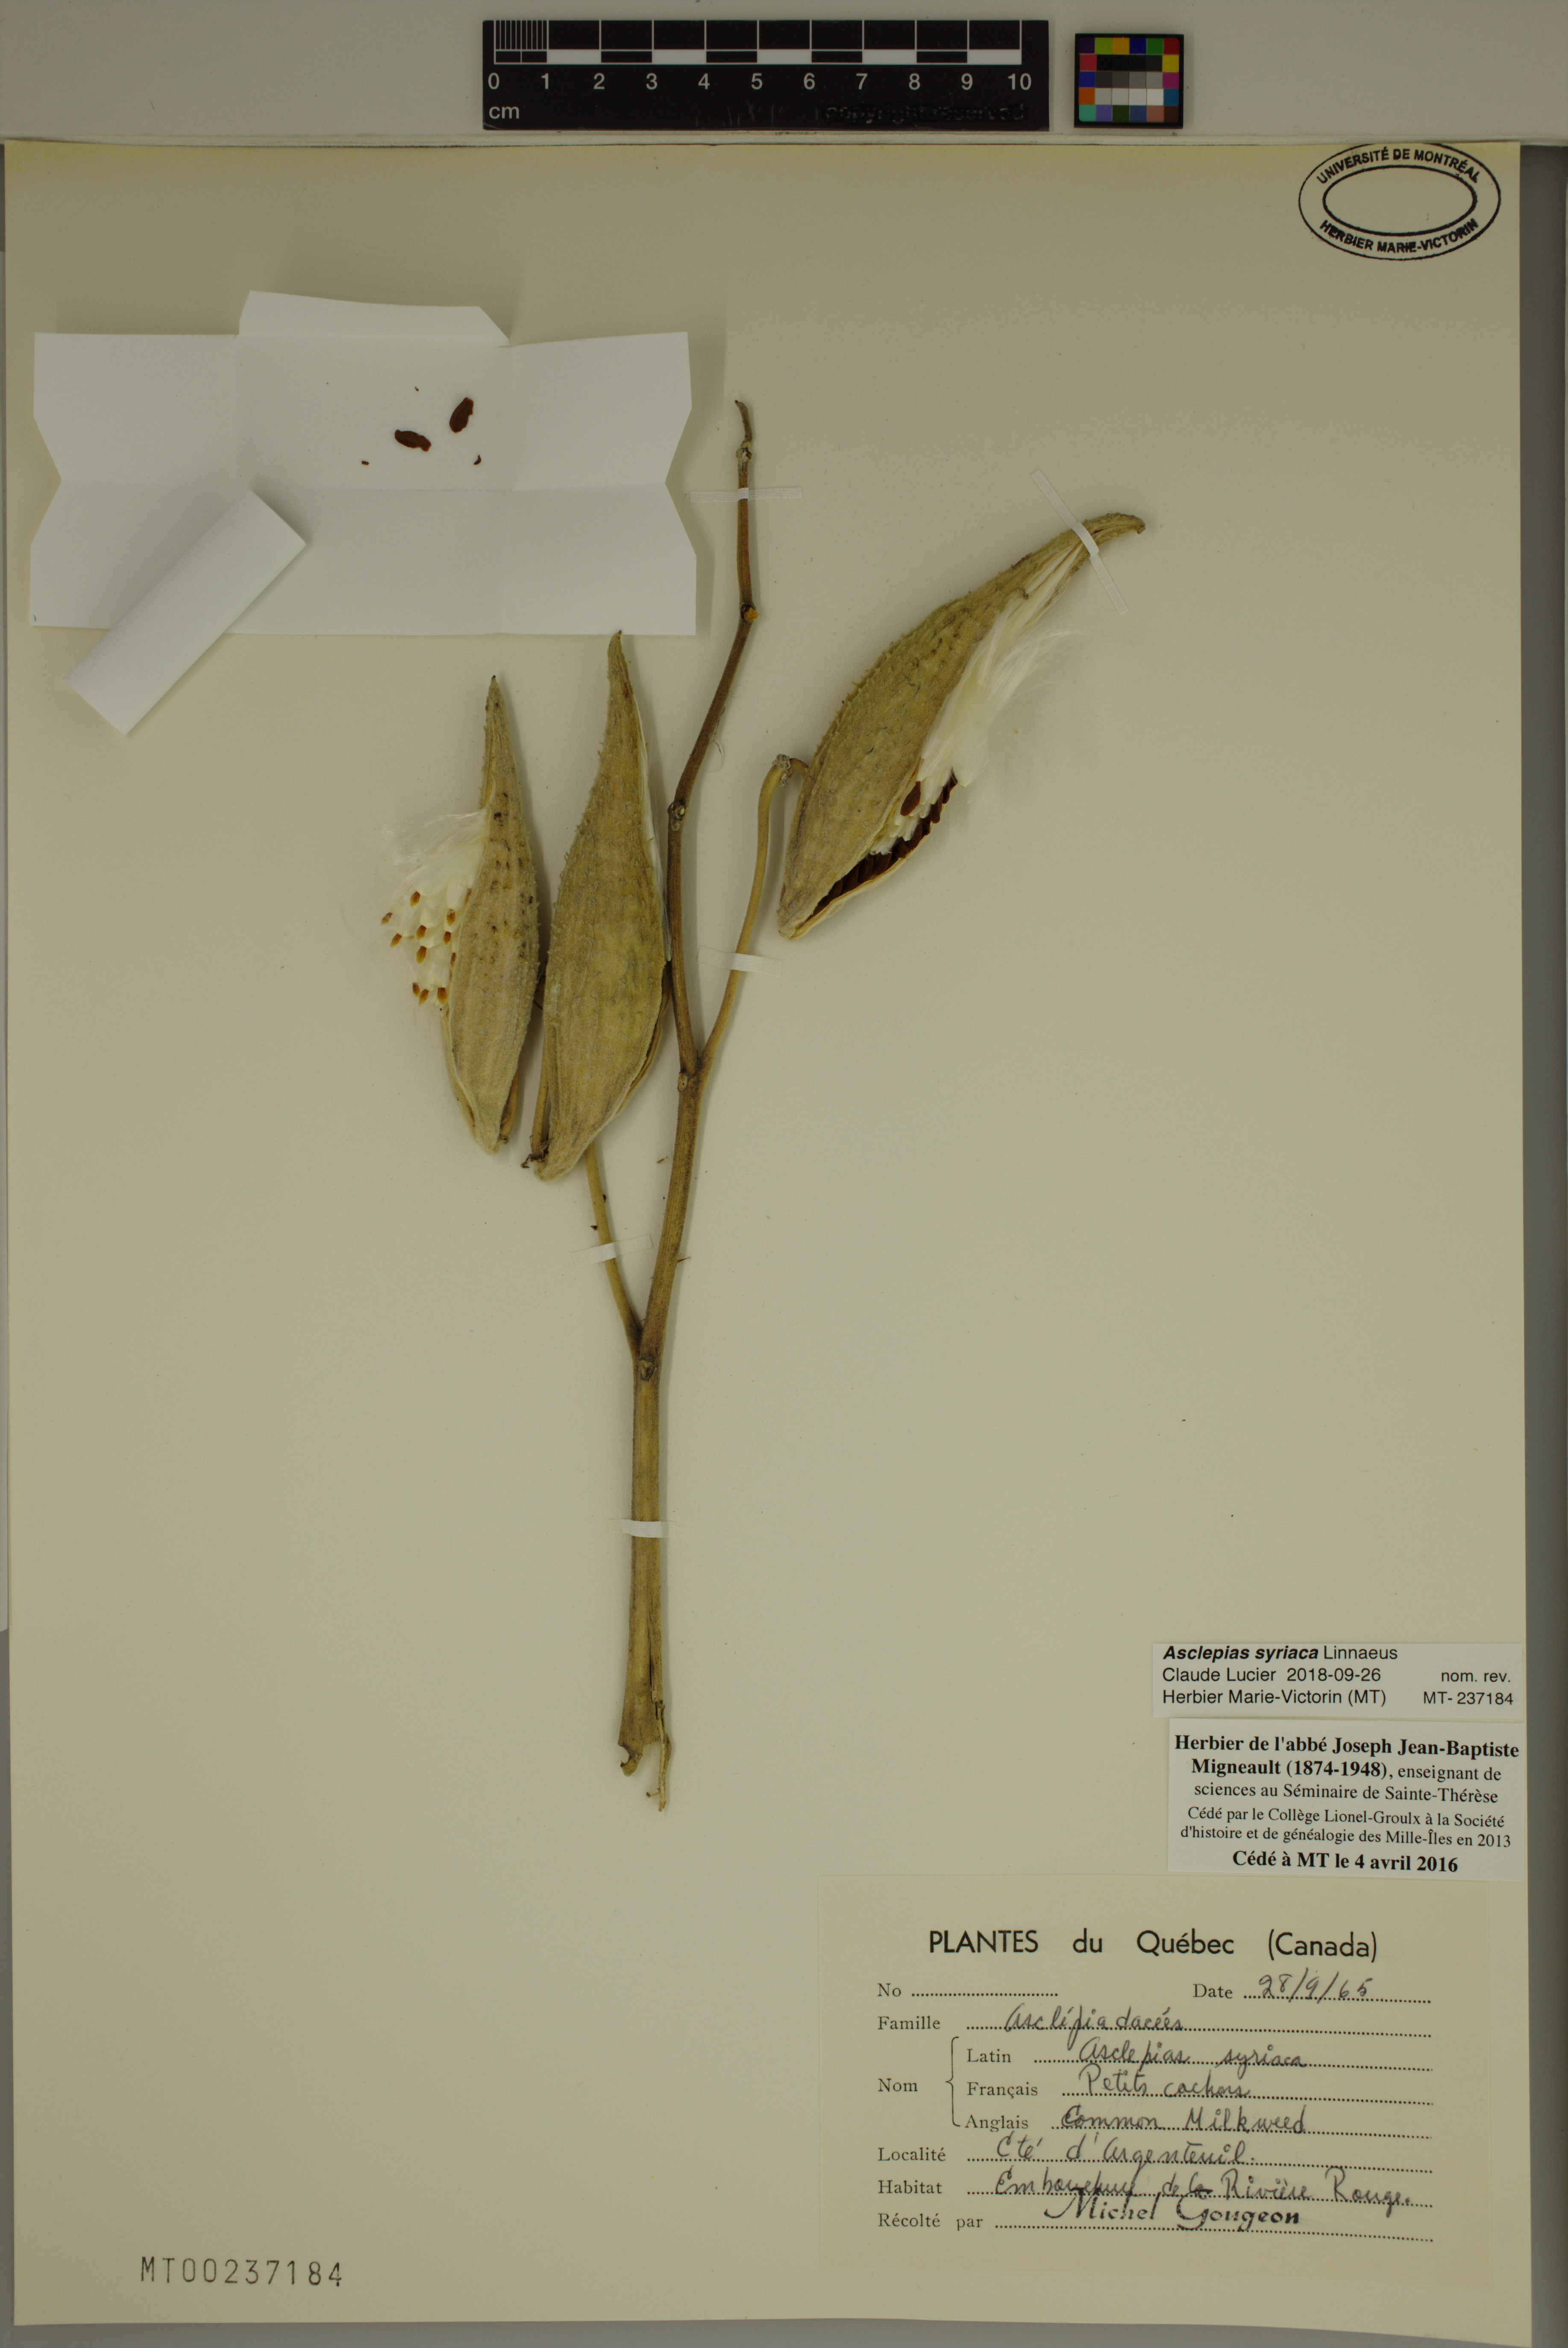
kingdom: Plantae
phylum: Tracheophyta
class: Magnoliopsida
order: Gentianales
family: Apocynaceae
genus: Asclepias
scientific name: Asclepias syriaca
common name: Common milkweed
